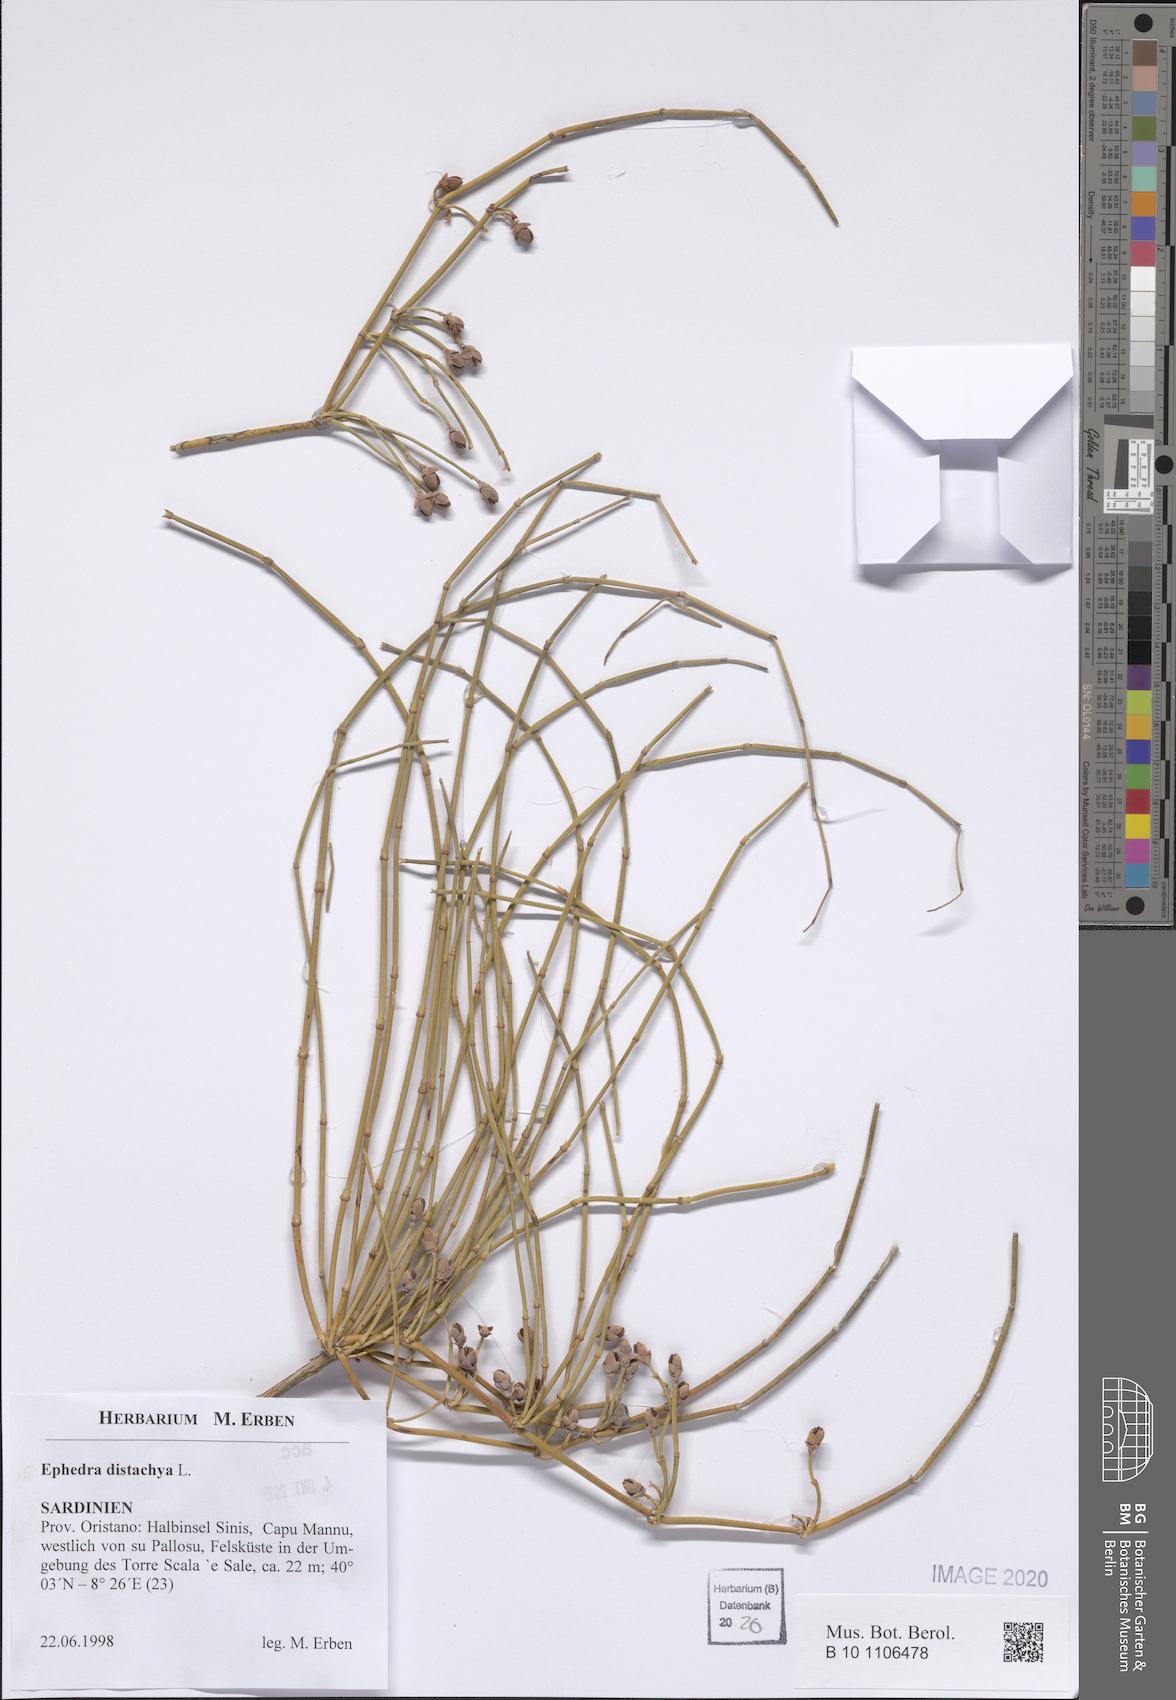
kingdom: Plantae
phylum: Tracheophyta
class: Gnetopsida
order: Ephedrales
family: Ephedraceae
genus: Ephedra
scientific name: Ephedra distachya
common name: Sea grape
